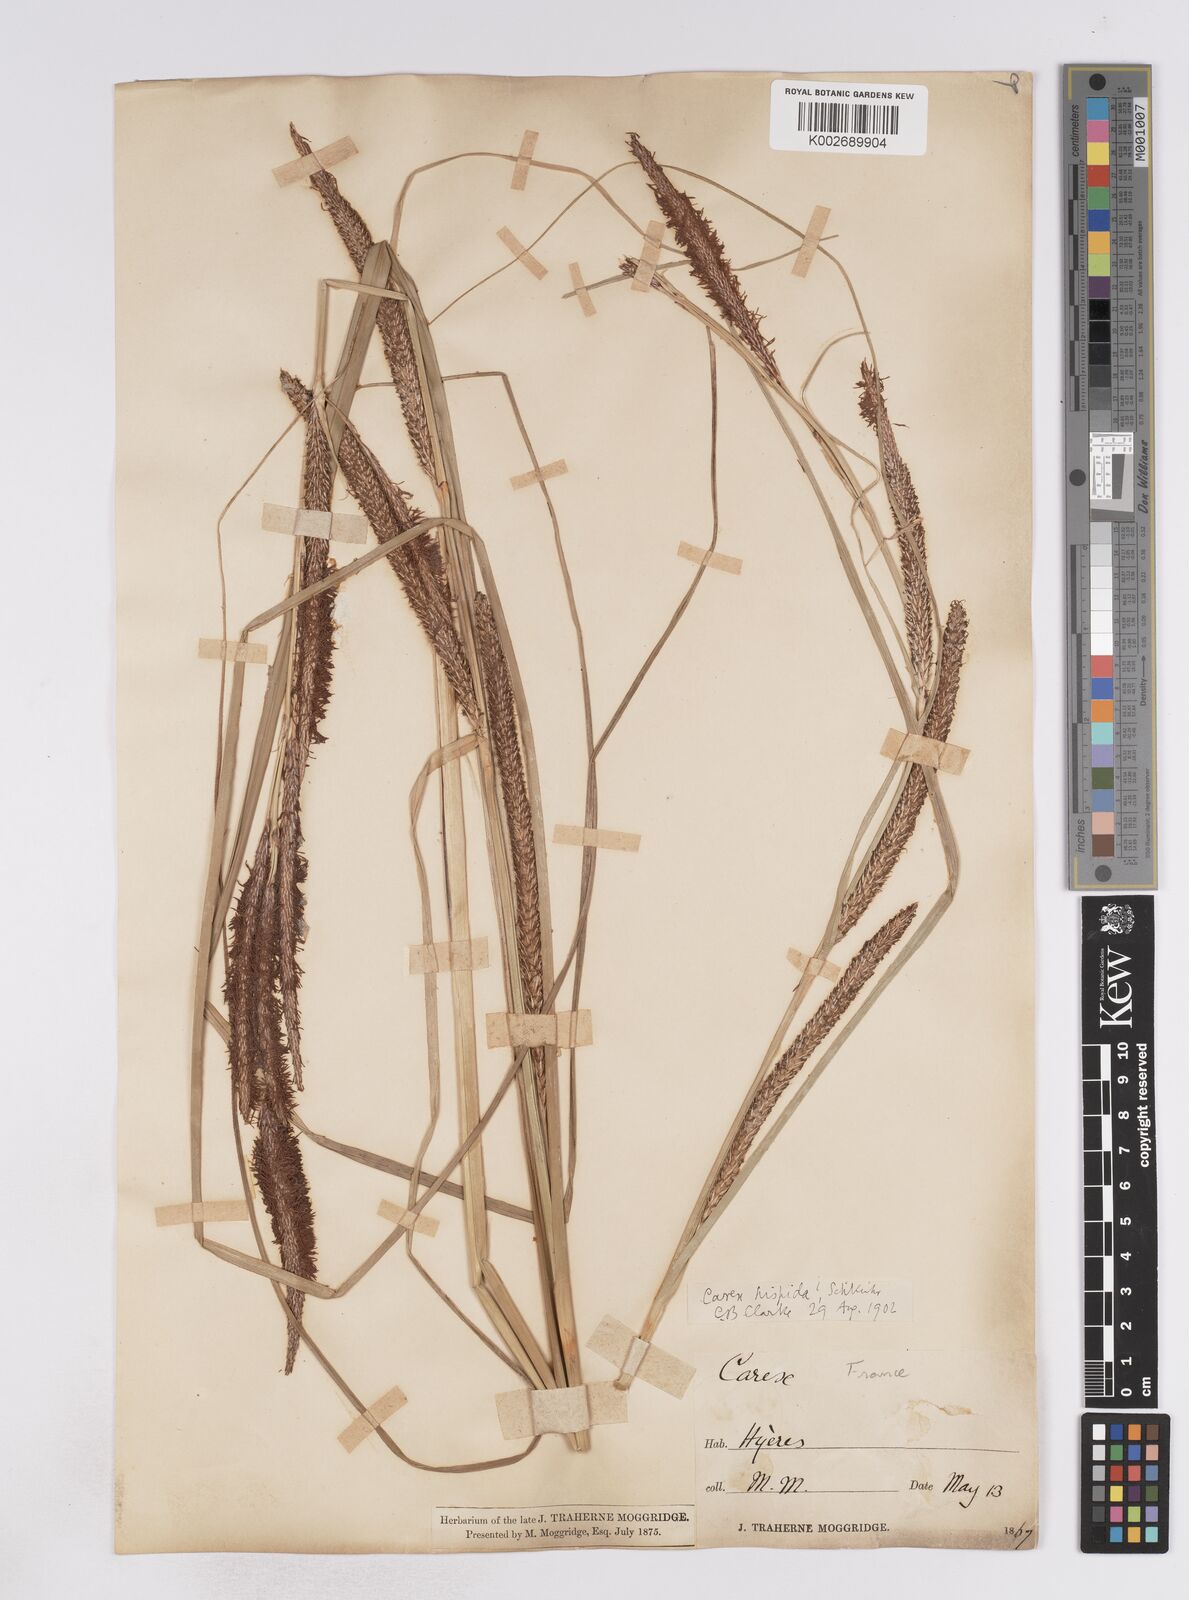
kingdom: Plantae
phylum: Tracheophyta
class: Liliopsida
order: Poales
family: Cyperaceae
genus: Carex
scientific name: Carex hispida
